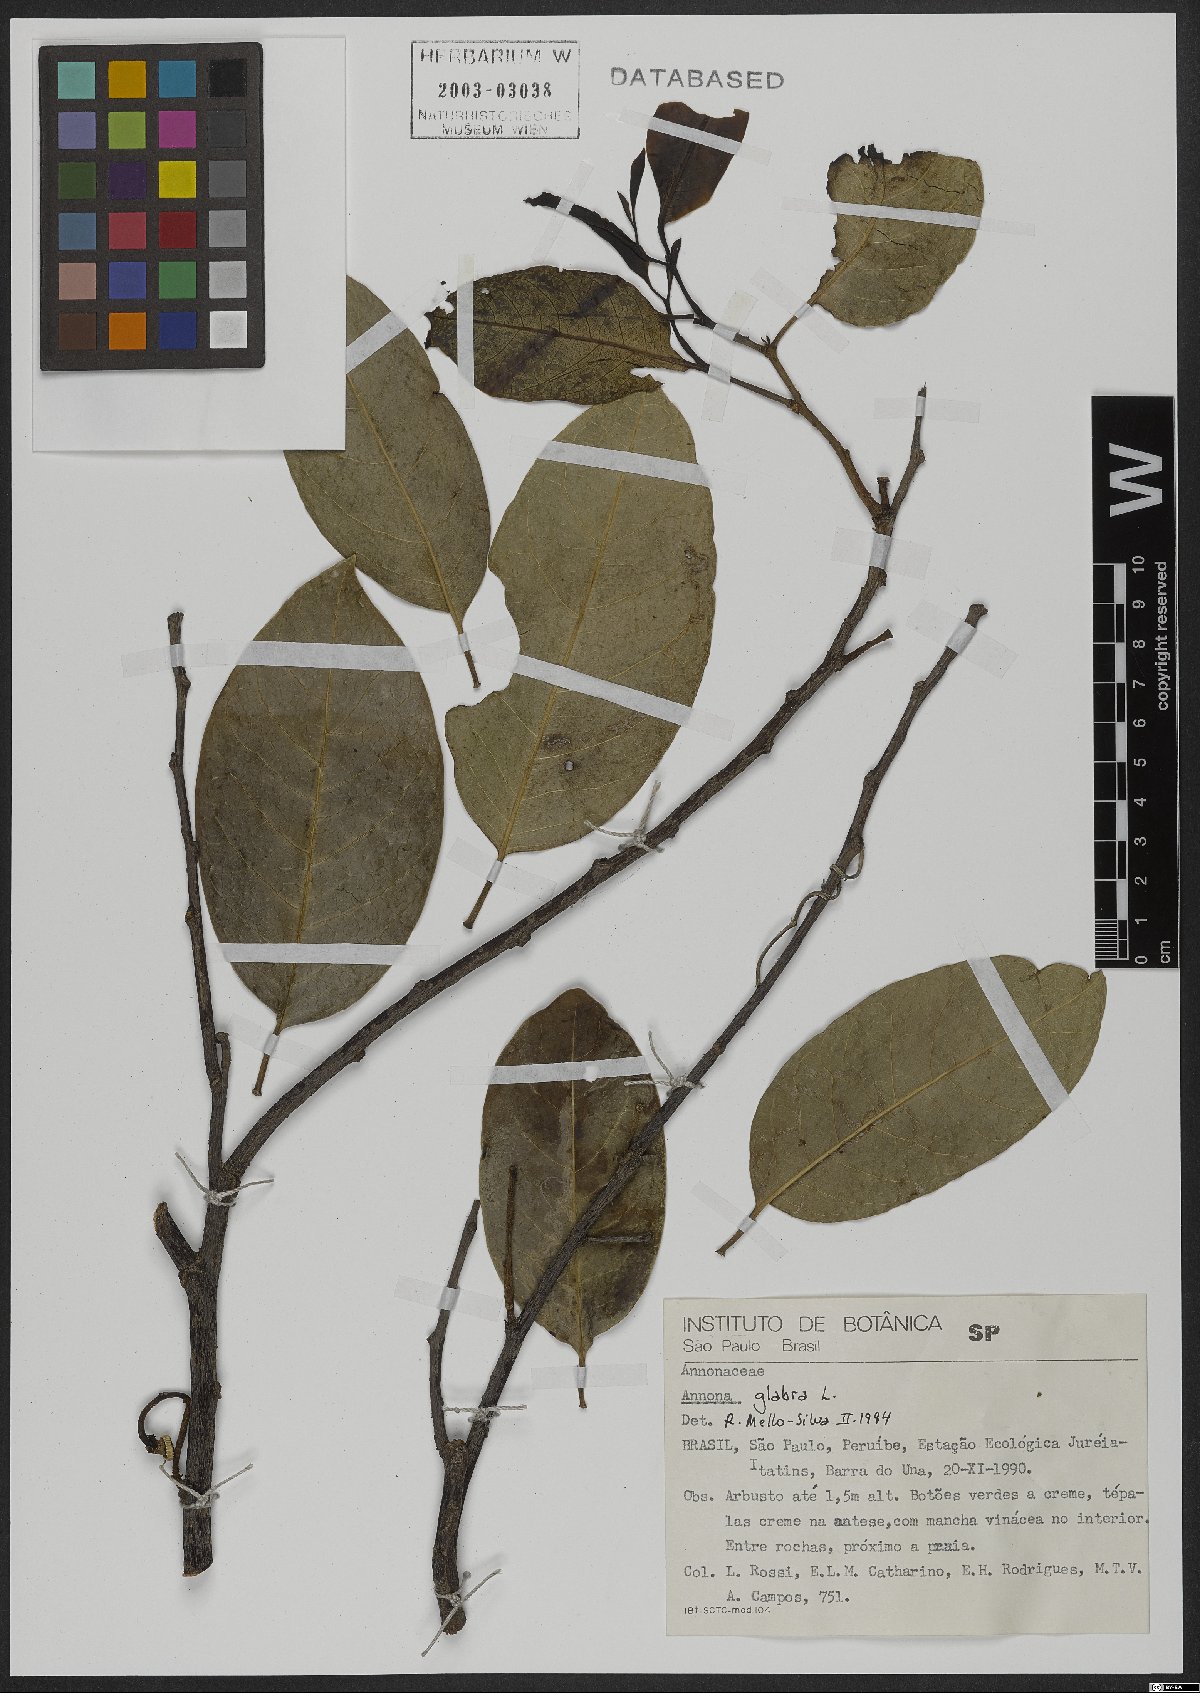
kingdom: Plantae
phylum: Tracheophyta
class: Magnoliopsida
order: Magnoliales
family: Annonaceae
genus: Annona
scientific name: Annona glabra
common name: Monkey apple
